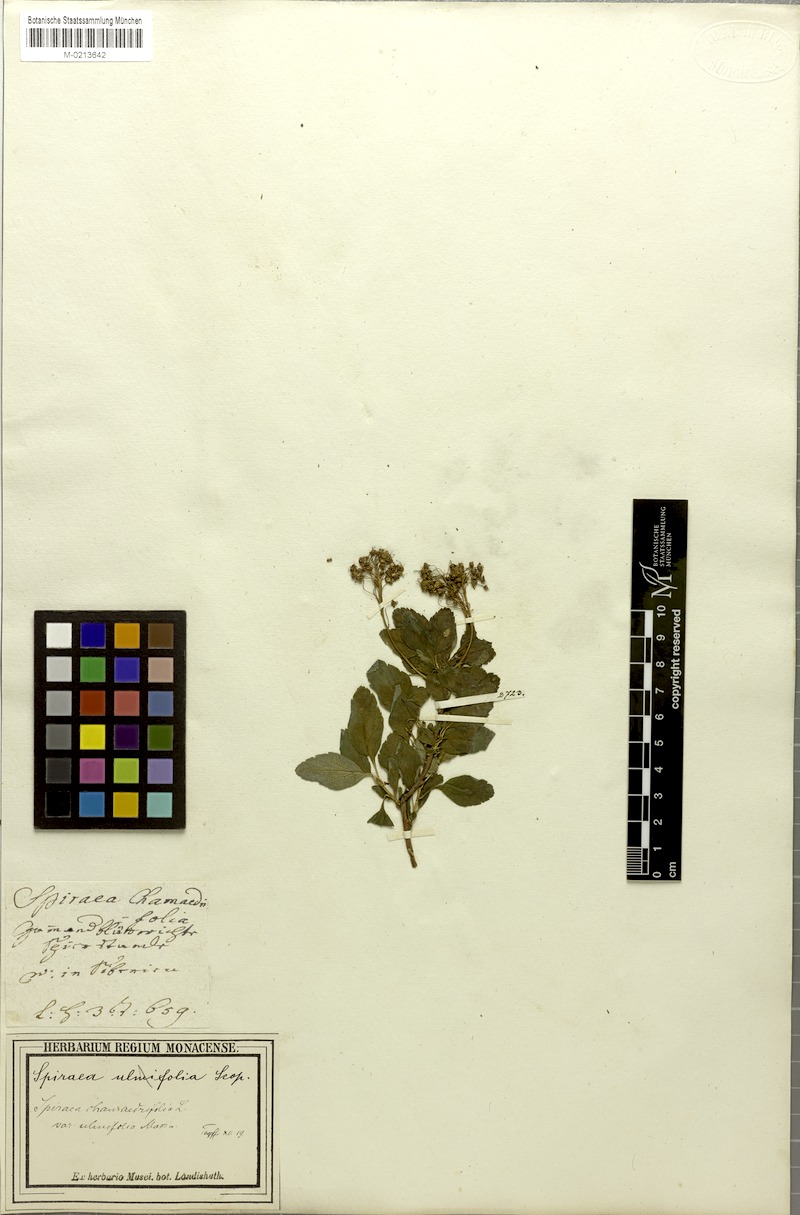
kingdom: Plantae
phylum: Tracheophyta
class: Magnoliopsida
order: Rosales
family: Rosaceae
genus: Spiraea
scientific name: Spiraea chamaedryfolia
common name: Elm-leaved spiraea
